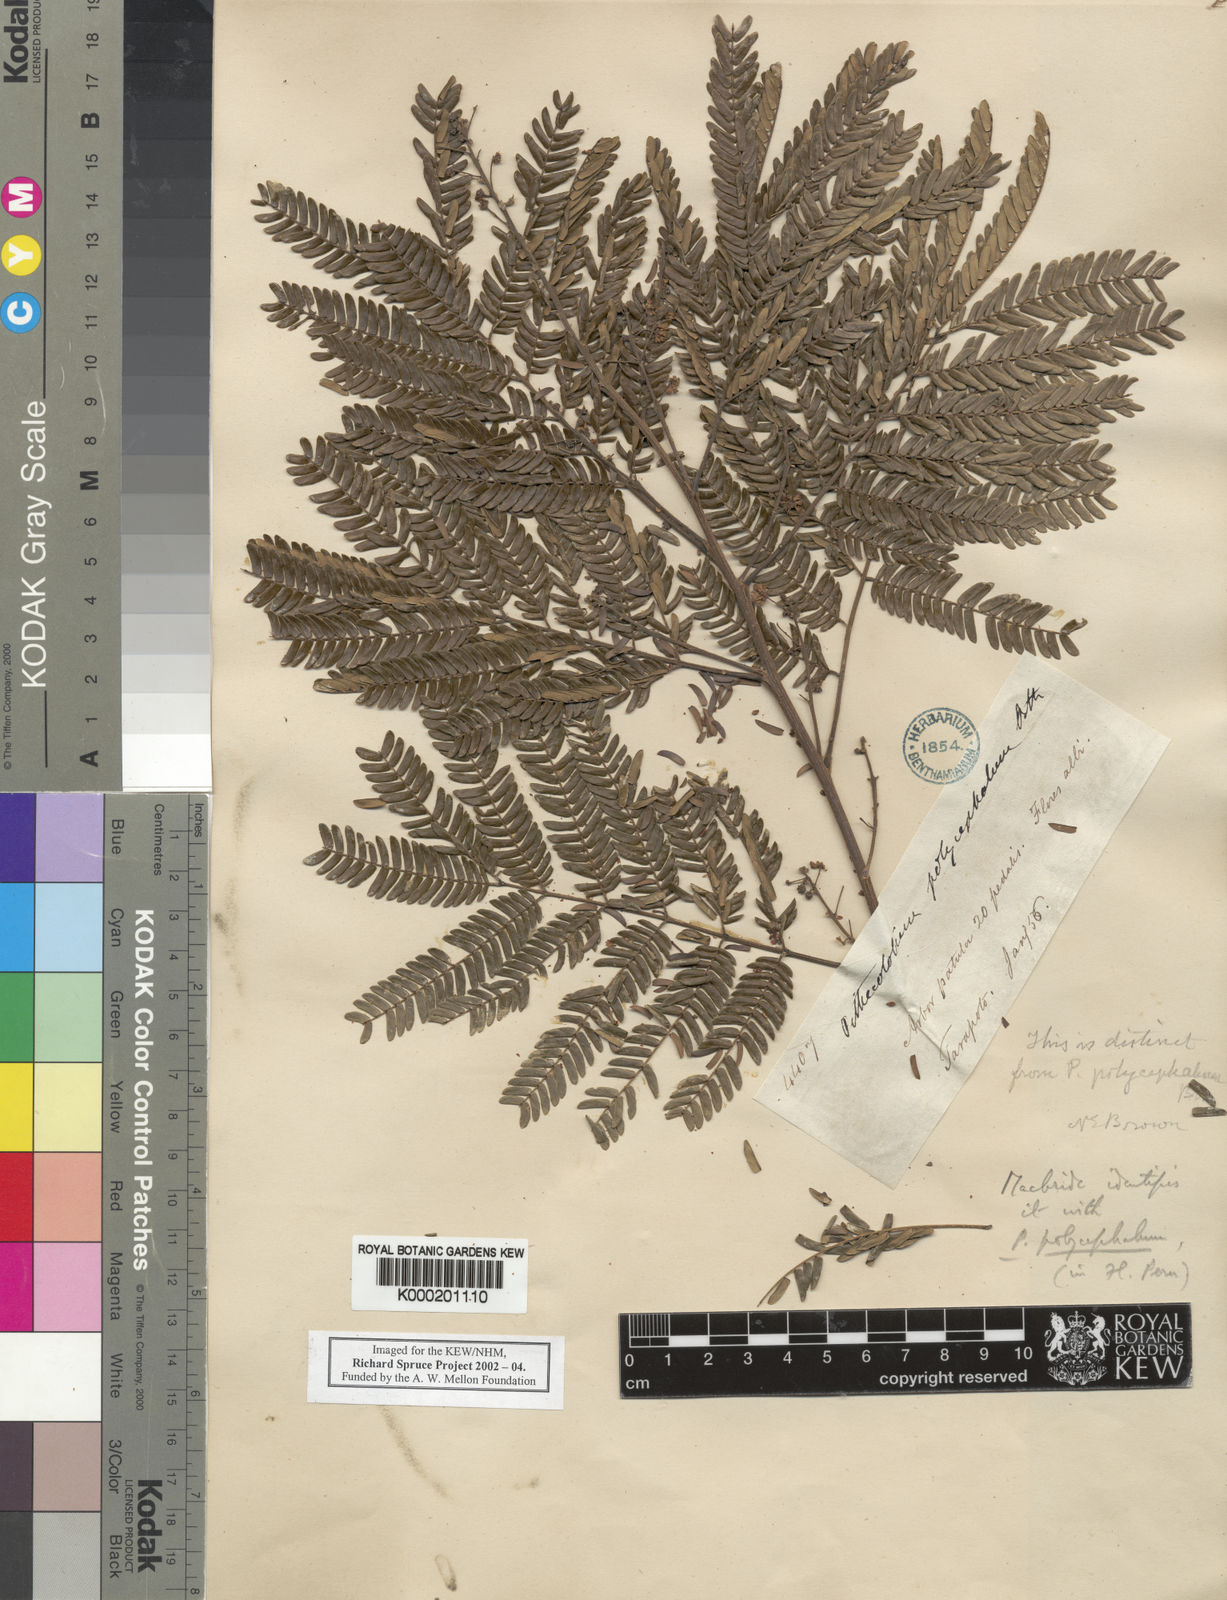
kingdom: Plantae
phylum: Tracheophyta
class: Magnoliopsida
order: Fabales
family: Fabaceae
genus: Albizia
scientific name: Albizia polycephala
